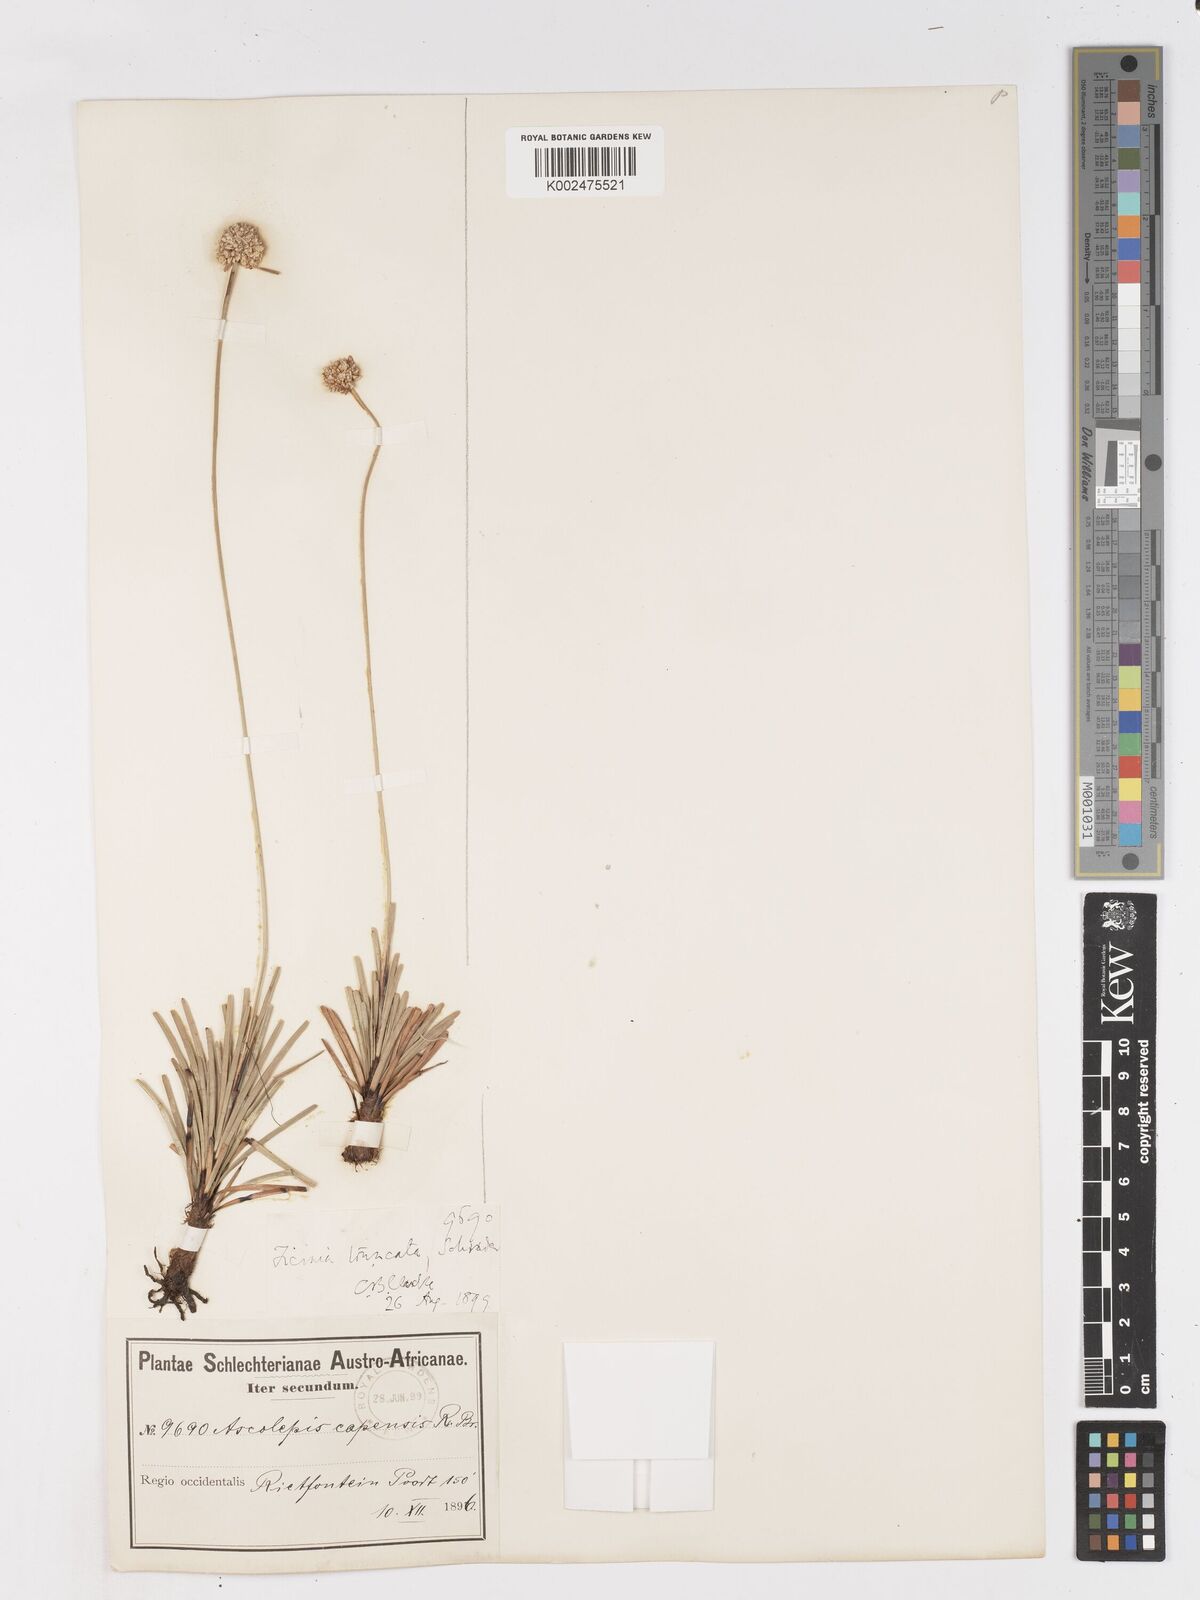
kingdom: Plantae
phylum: Tracheophyta
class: Liliopsida
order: Poales
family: Cyperaceae
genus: Ficinia
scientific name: Ficinia truncata
